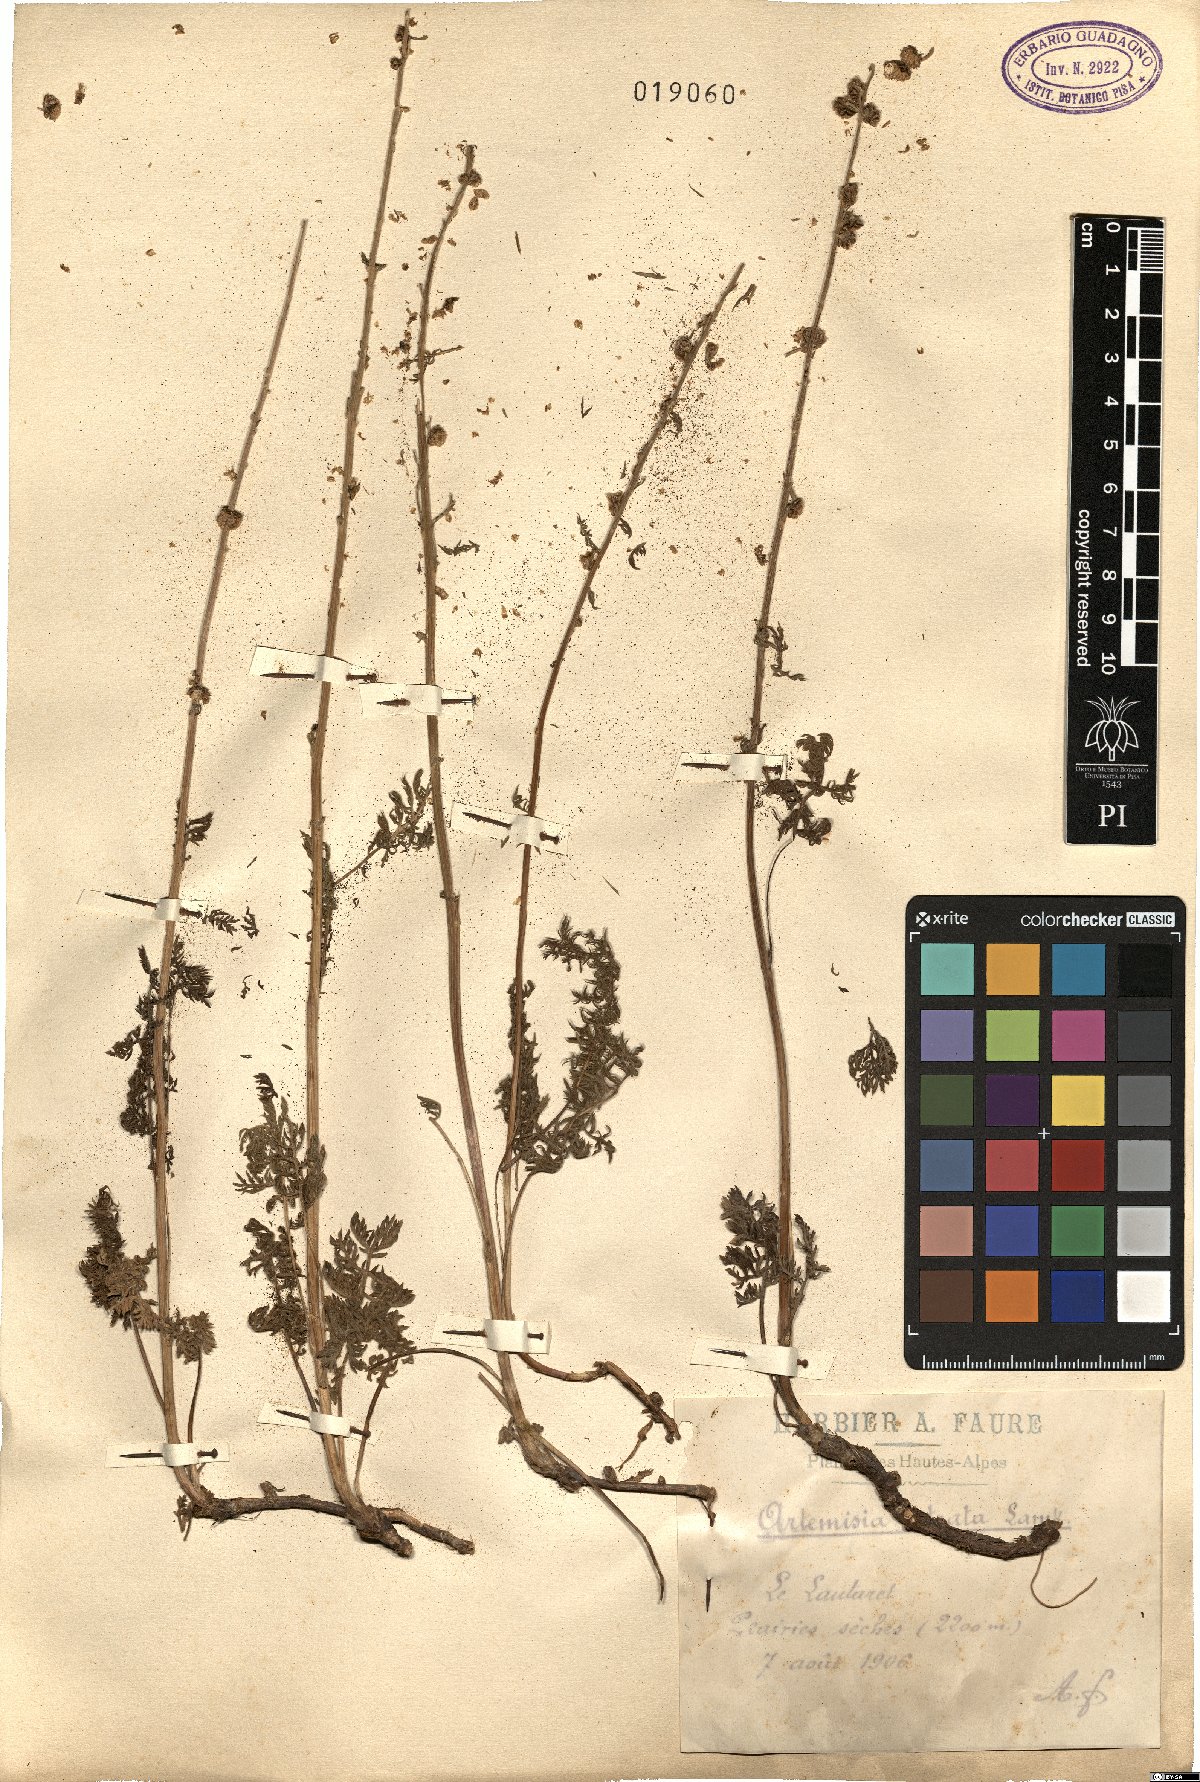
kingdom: Plantae
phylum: Tracheophyta
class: Magnoliopsida
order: Asterales
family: Asteraceae
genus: Artemisia
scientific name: Artemisia atrata
